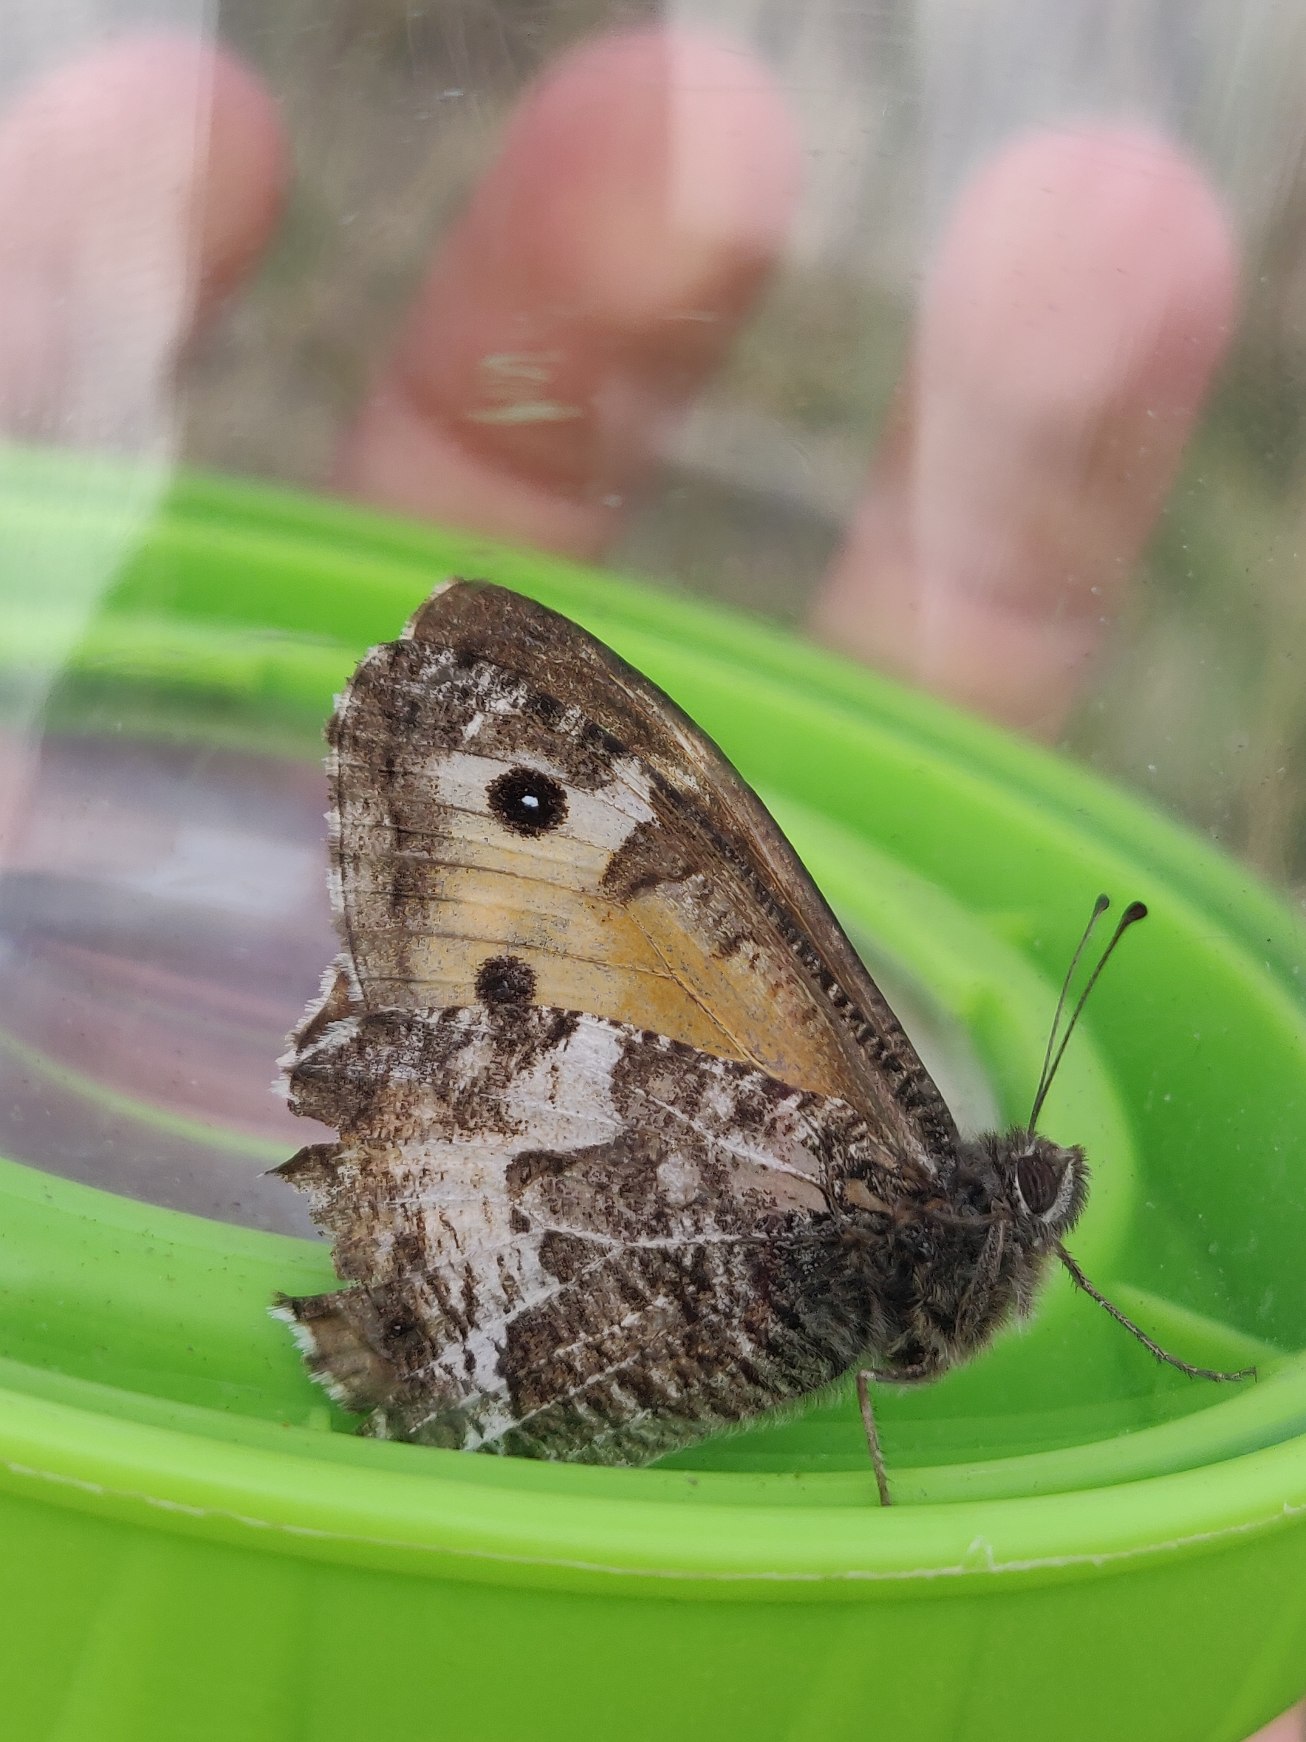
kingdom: Animalia
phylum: Arthropoda
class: Insecta
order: Lepidoptera
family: Nymphalidae
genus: Hipparchia
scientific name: Hipparchia semele
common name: Sandrandøje
